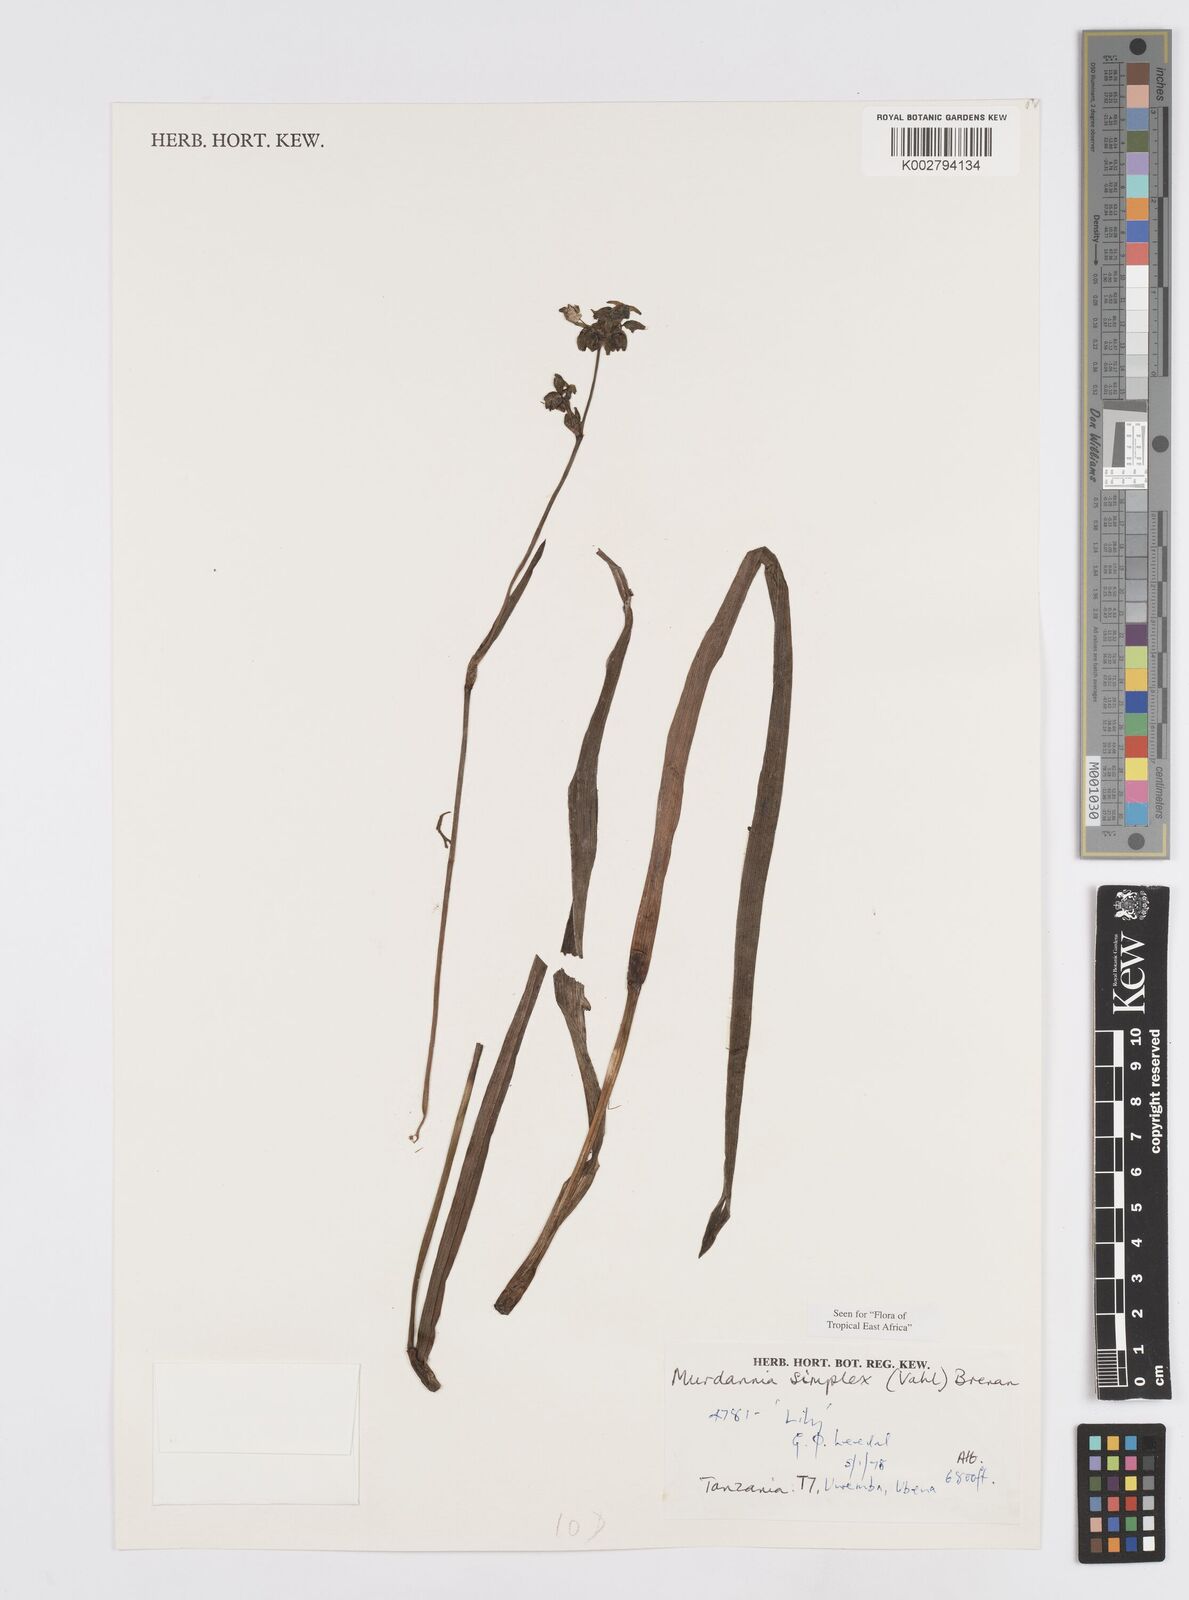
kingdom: Plantae
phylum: Tracheophyta
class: Liliopsida
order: Commelinales
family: Commelinaceae
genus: Murdannia
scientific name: Murdannia simplex
